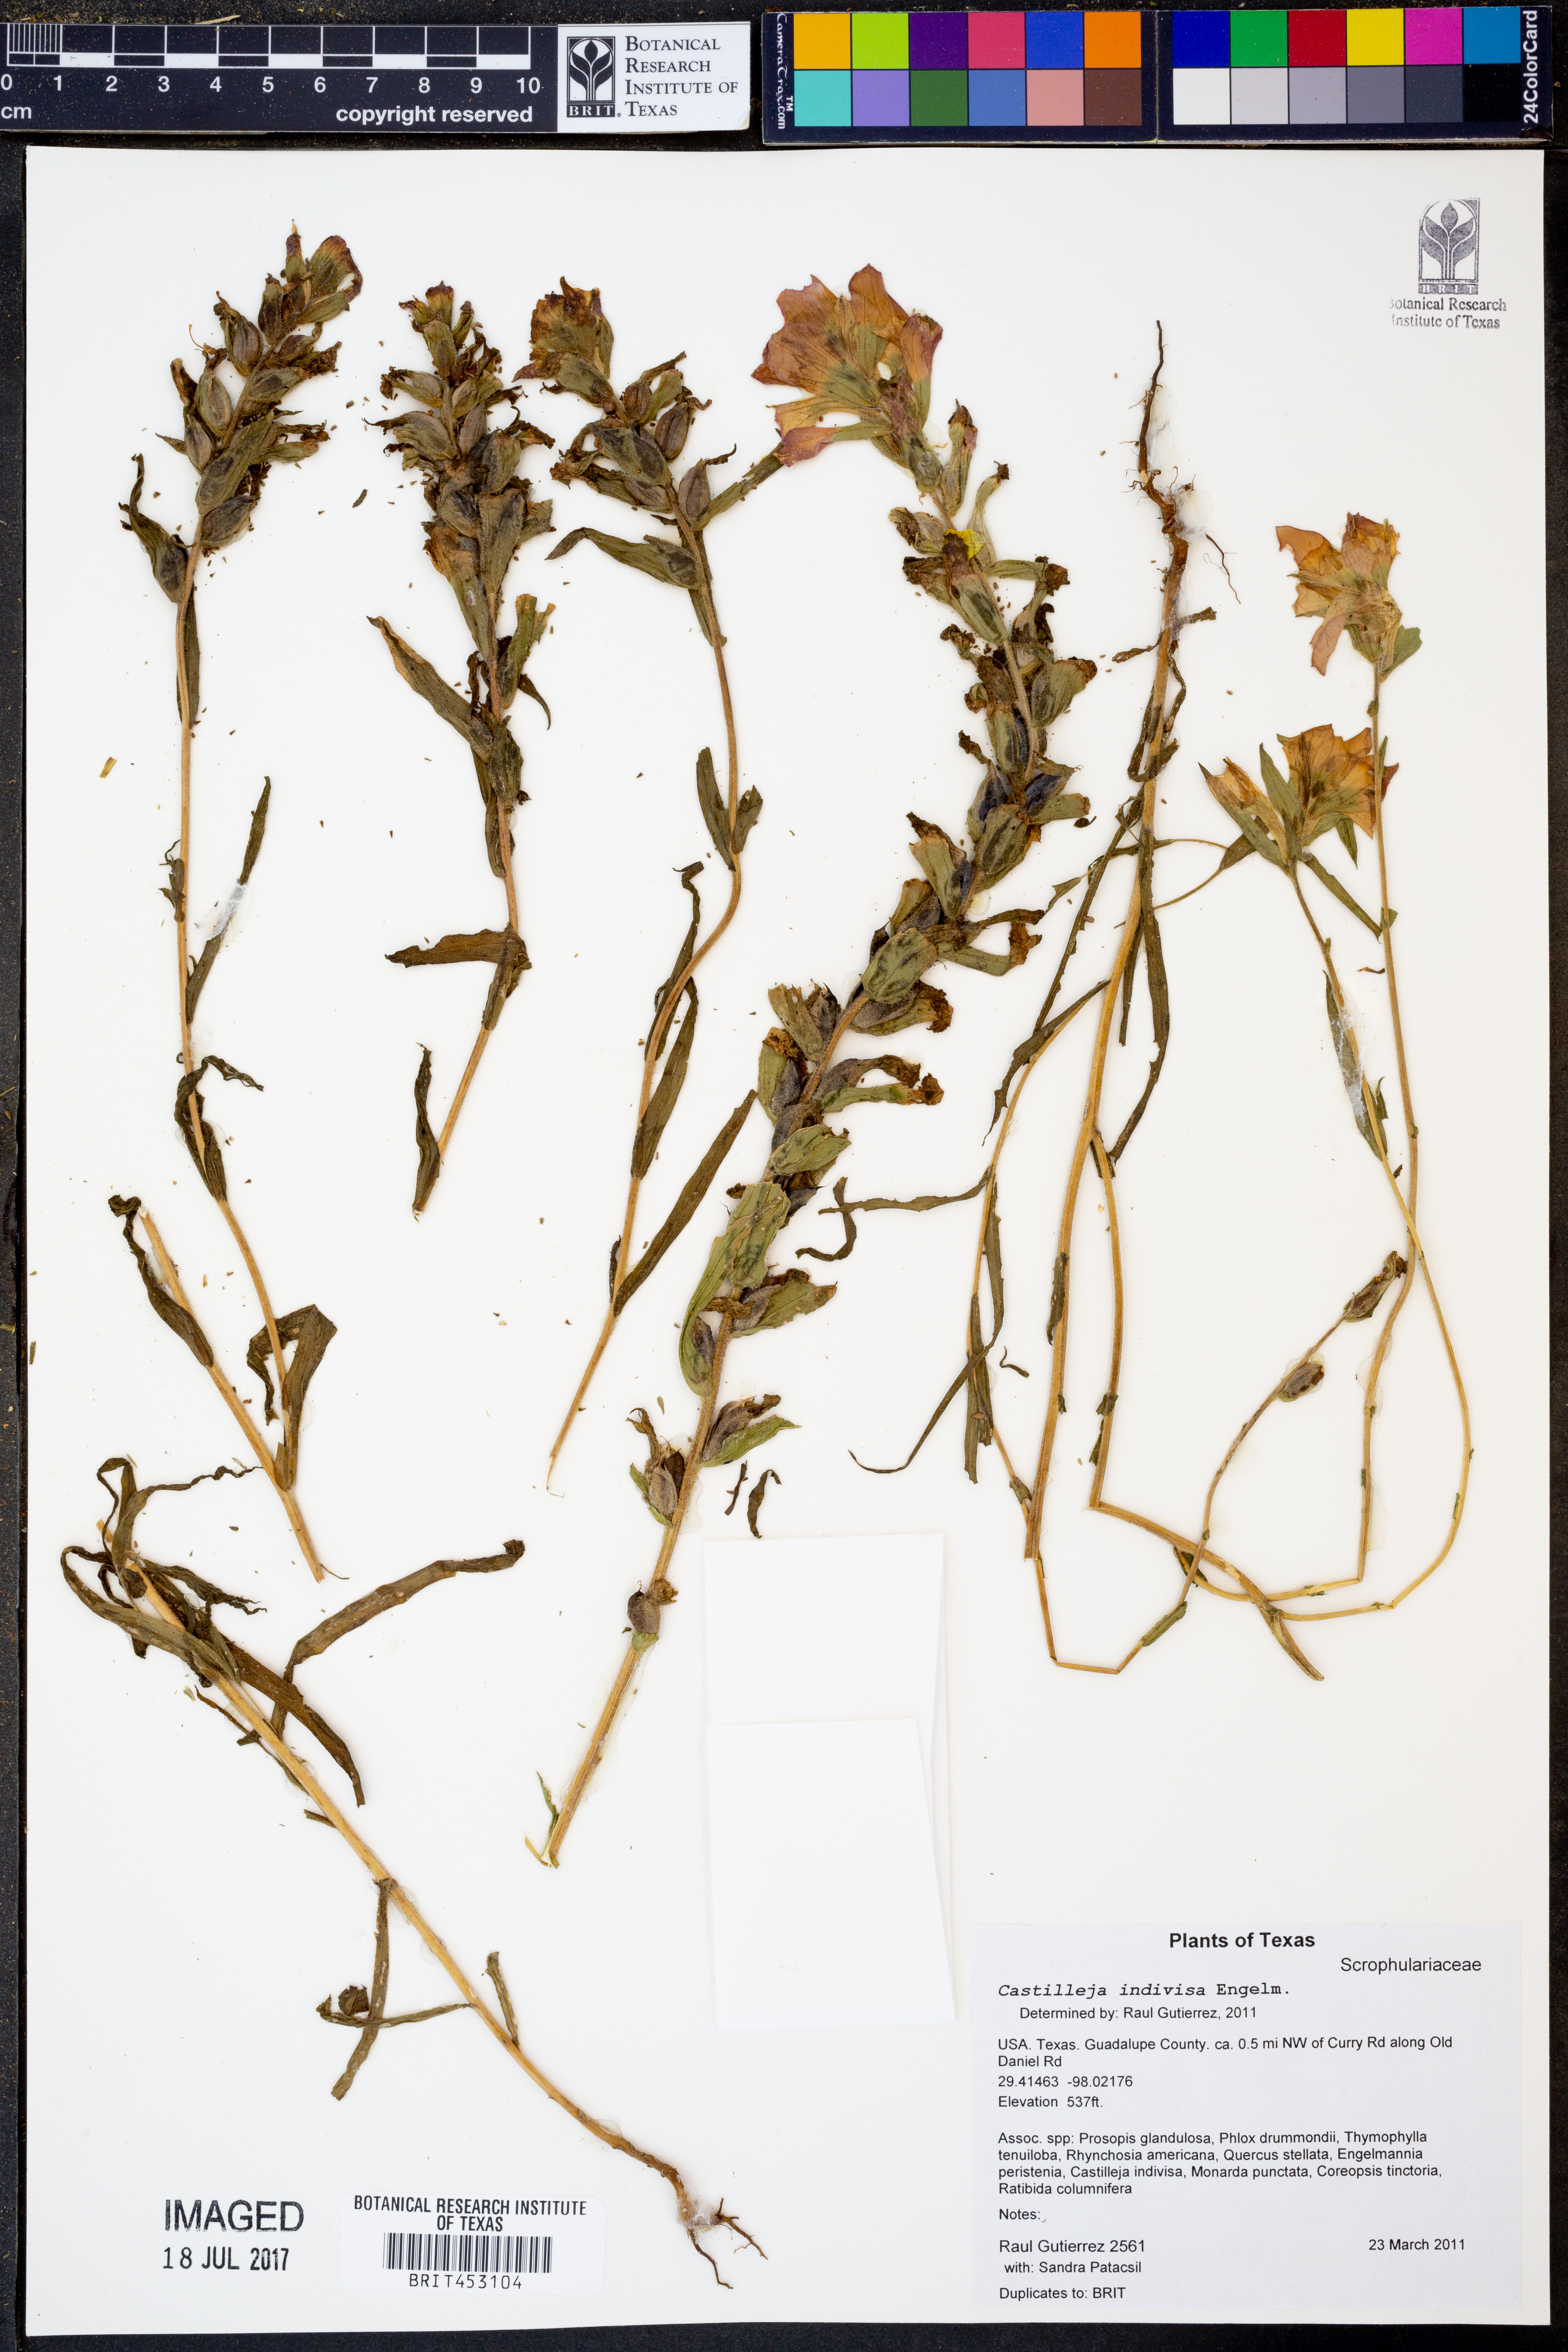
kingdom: Plantae
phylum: Tracheophyta
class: Magnoliopsida
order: Lamiales
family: Orobanchaceae
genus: Castilleja
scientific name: Castilleja indivisa
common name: Texas paintbrush
